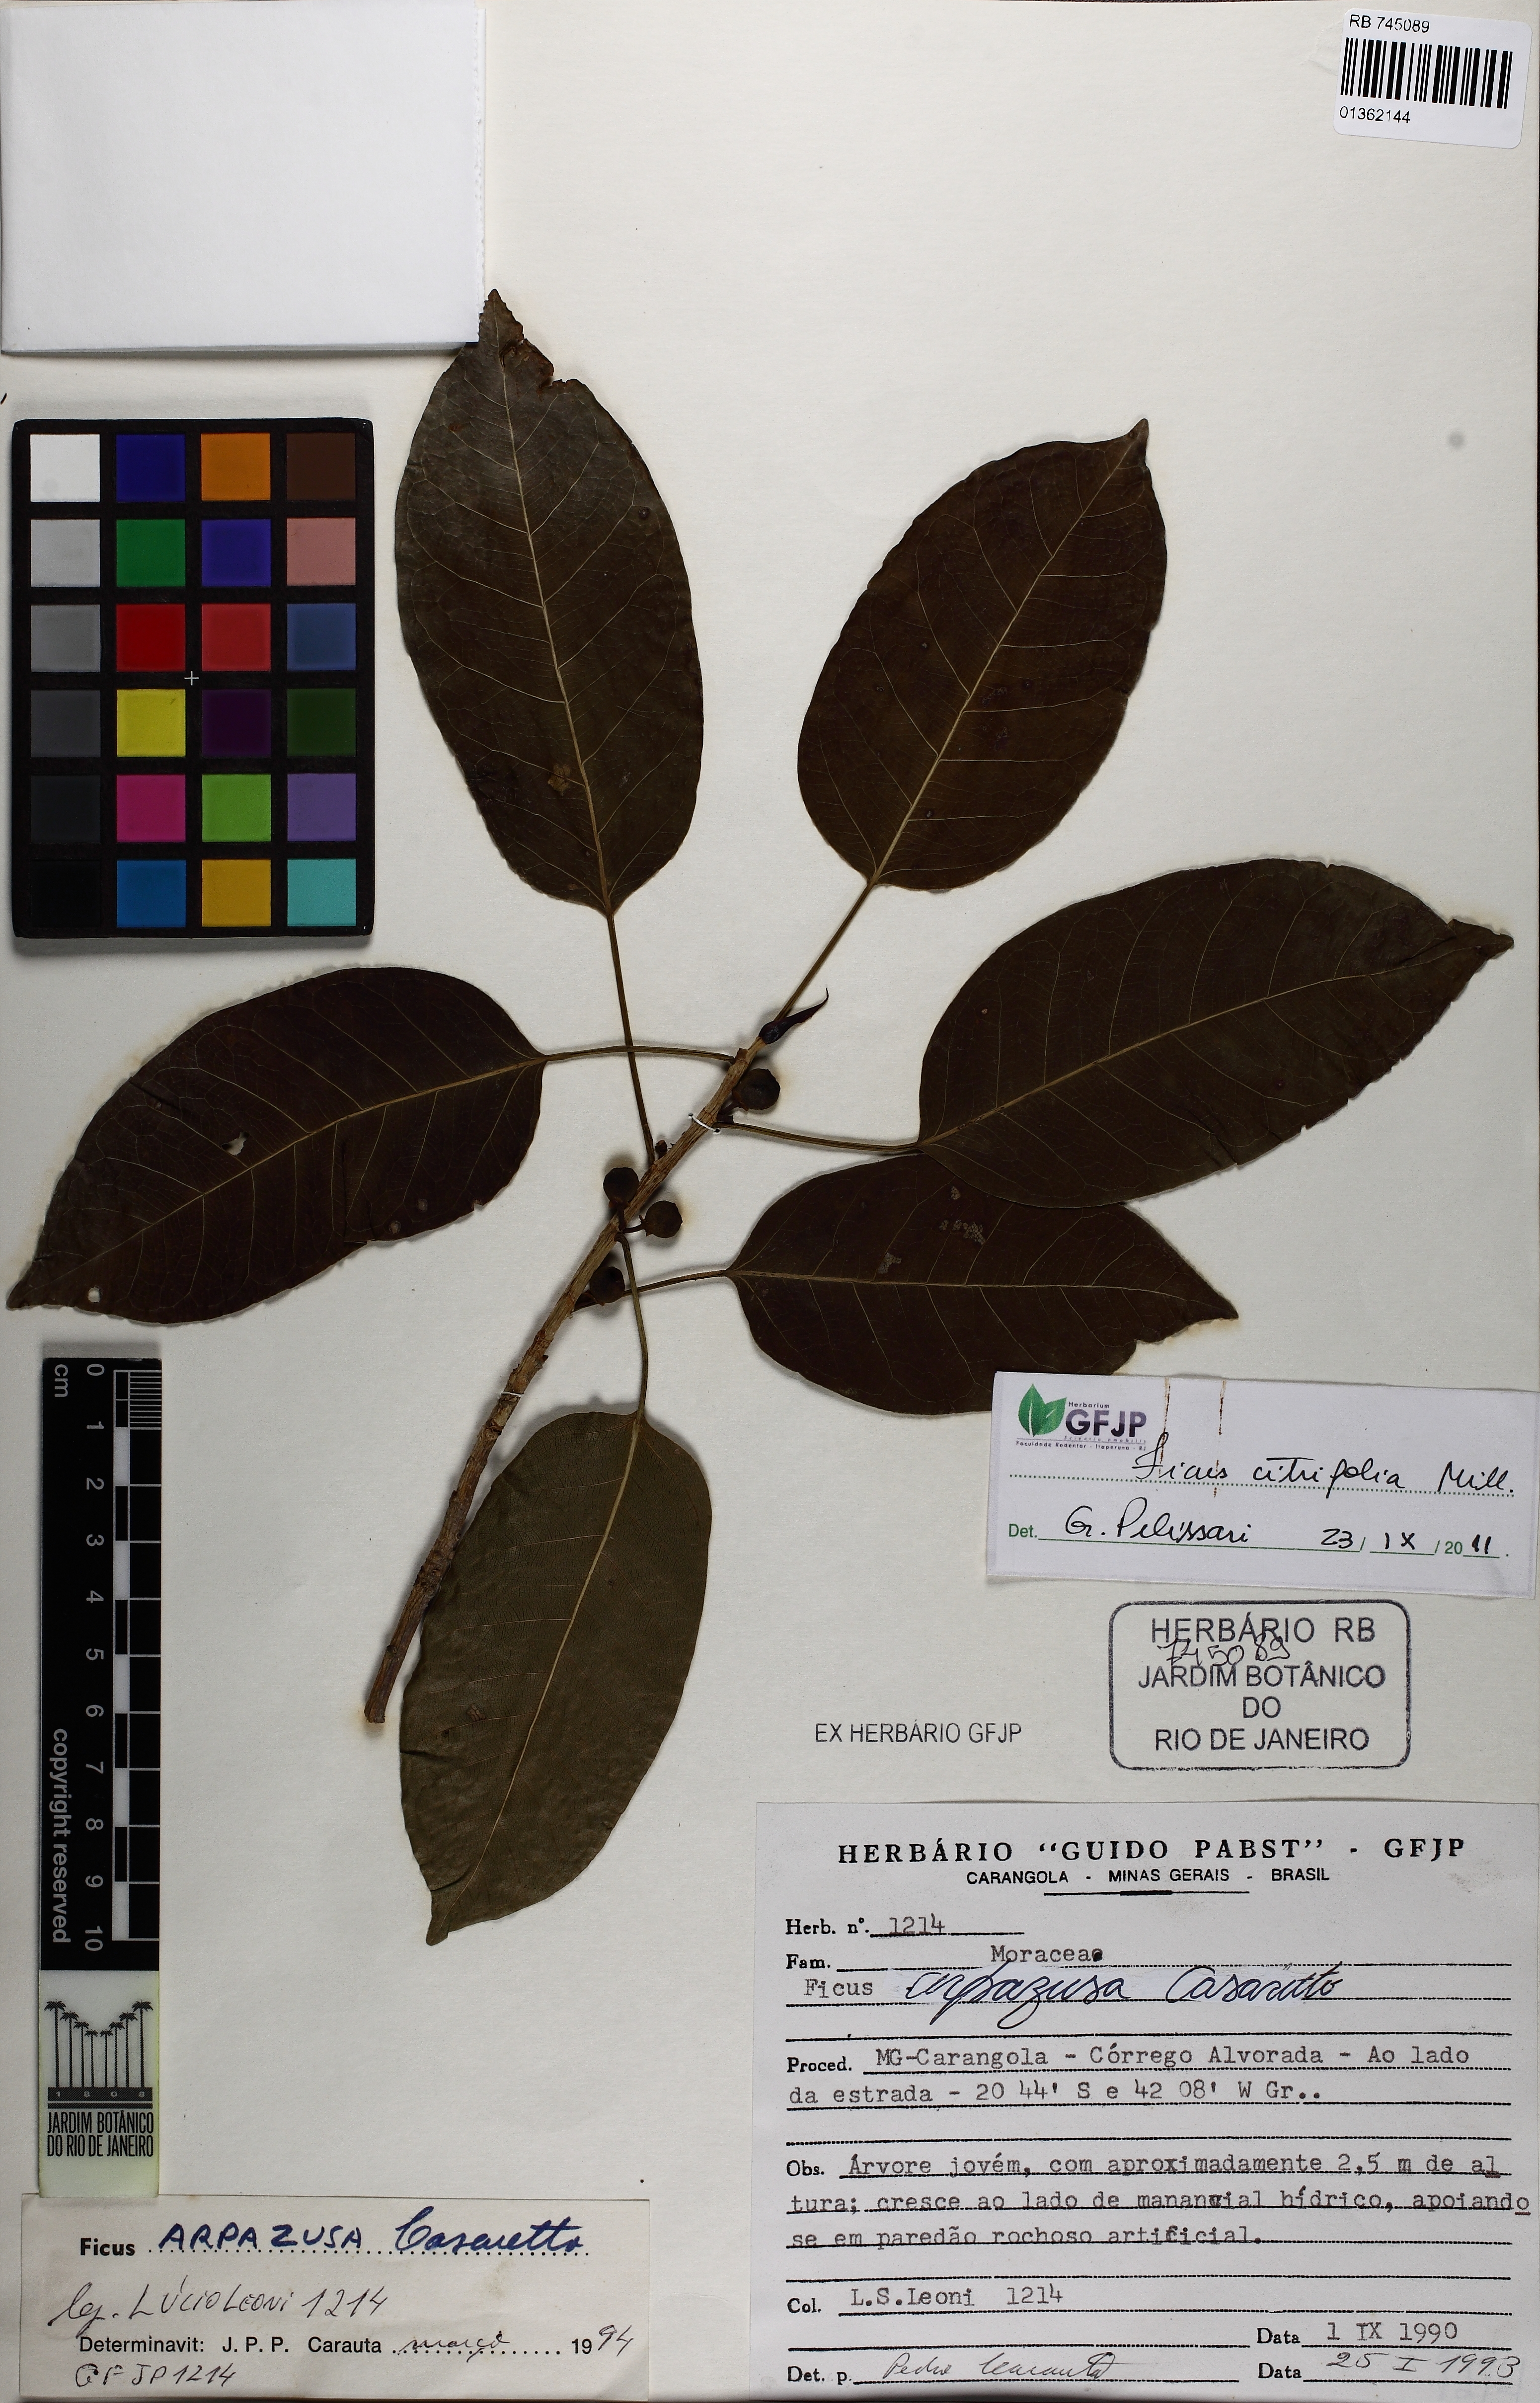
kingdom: Plantae
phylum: Tracheophyta
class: Magnoliopsida
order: Rosales
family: Moraceae
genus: Ficus
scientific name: Ficus arpazusa
